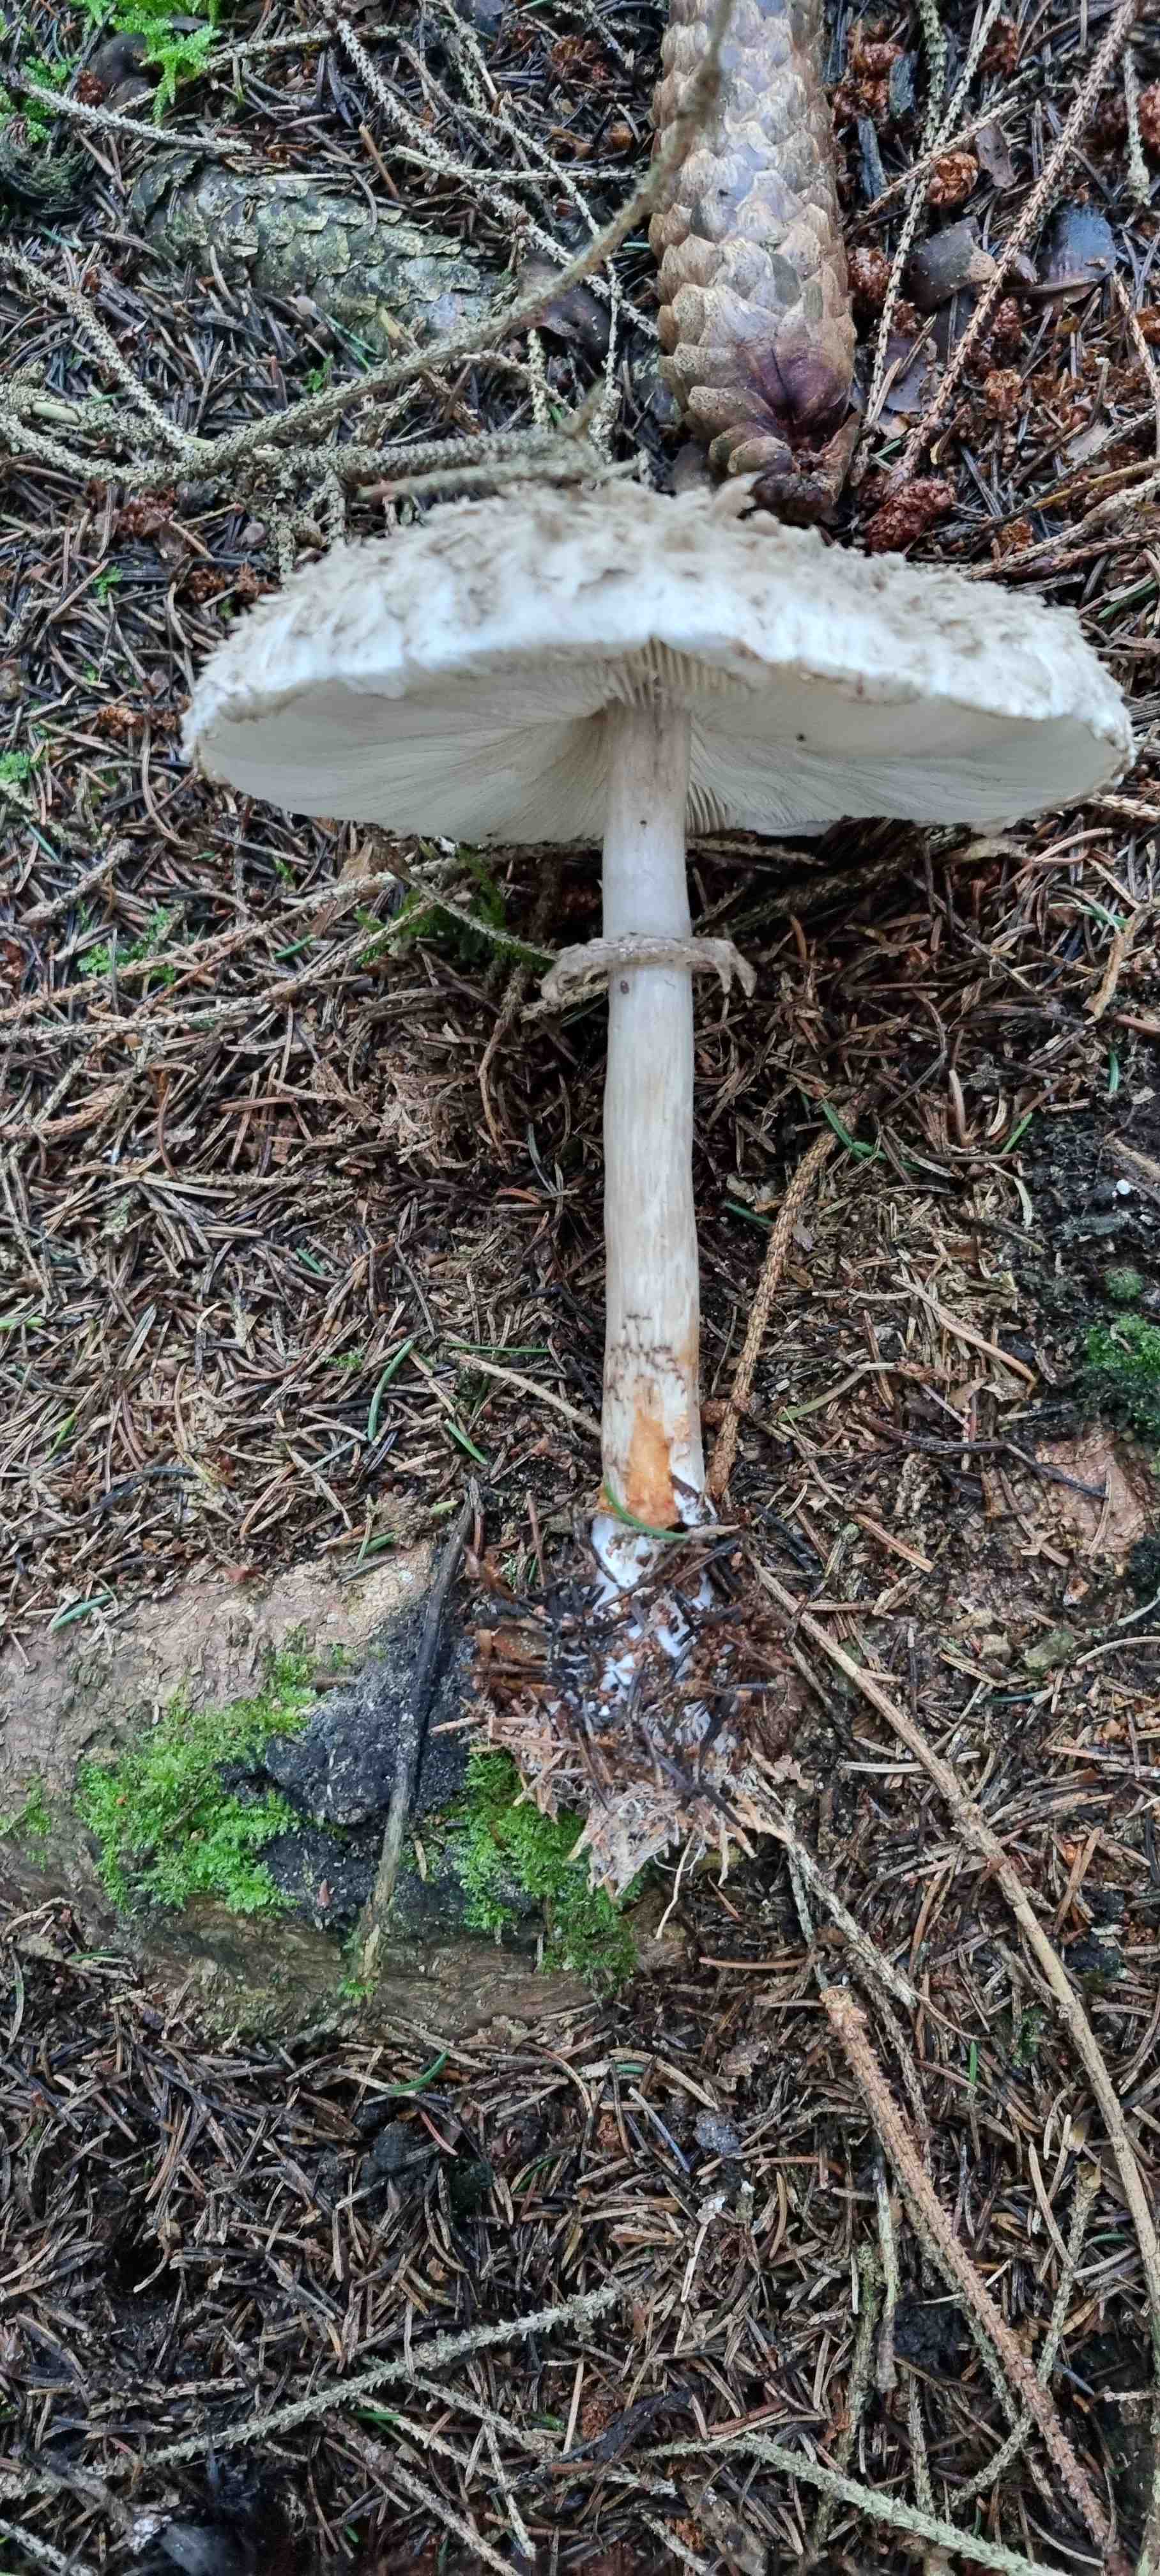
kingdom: Fungi
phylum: Basidiomycota
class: Agaricomycetes
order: Agaricales
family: Agaricaceae
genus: Chlorophyllum
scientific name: Chlorophyllum olivieri
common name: almindelig rabarberhat
